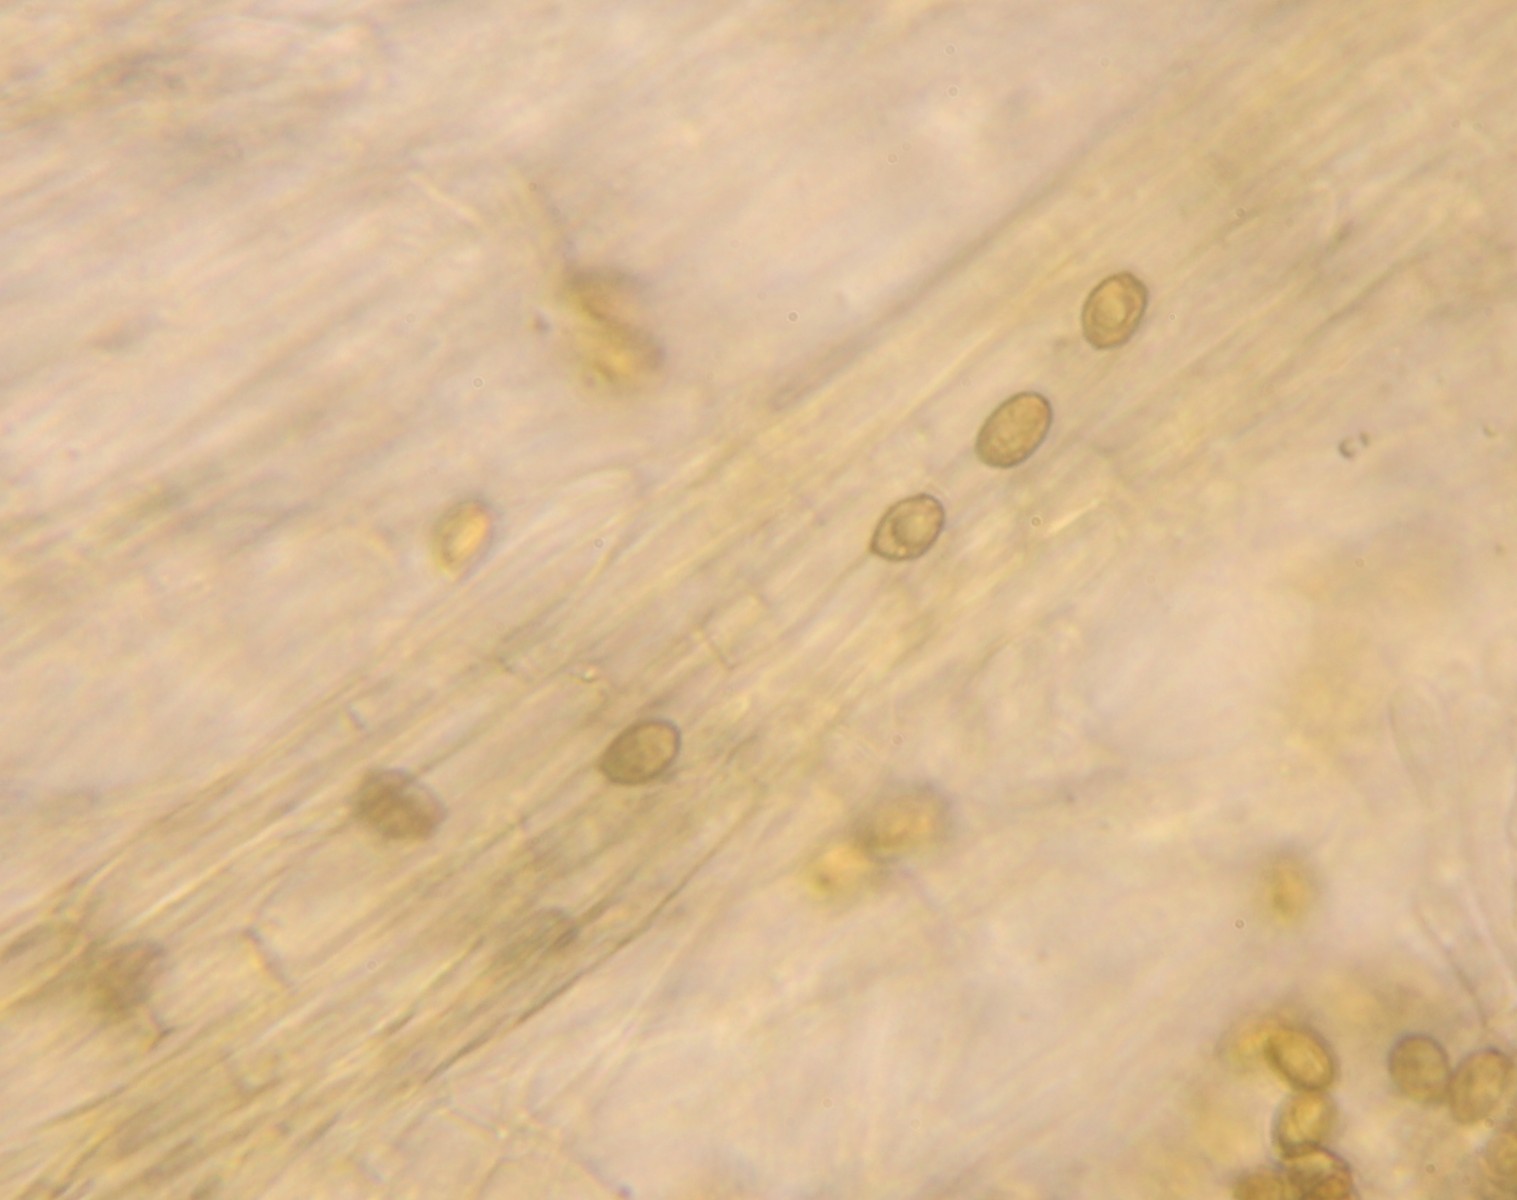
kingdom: Fungi
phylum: Basidiomycota
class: Agaricomycetes
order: Agaricales
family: Cortinariaceae
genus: Cortinarius
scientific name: Cortinarius
